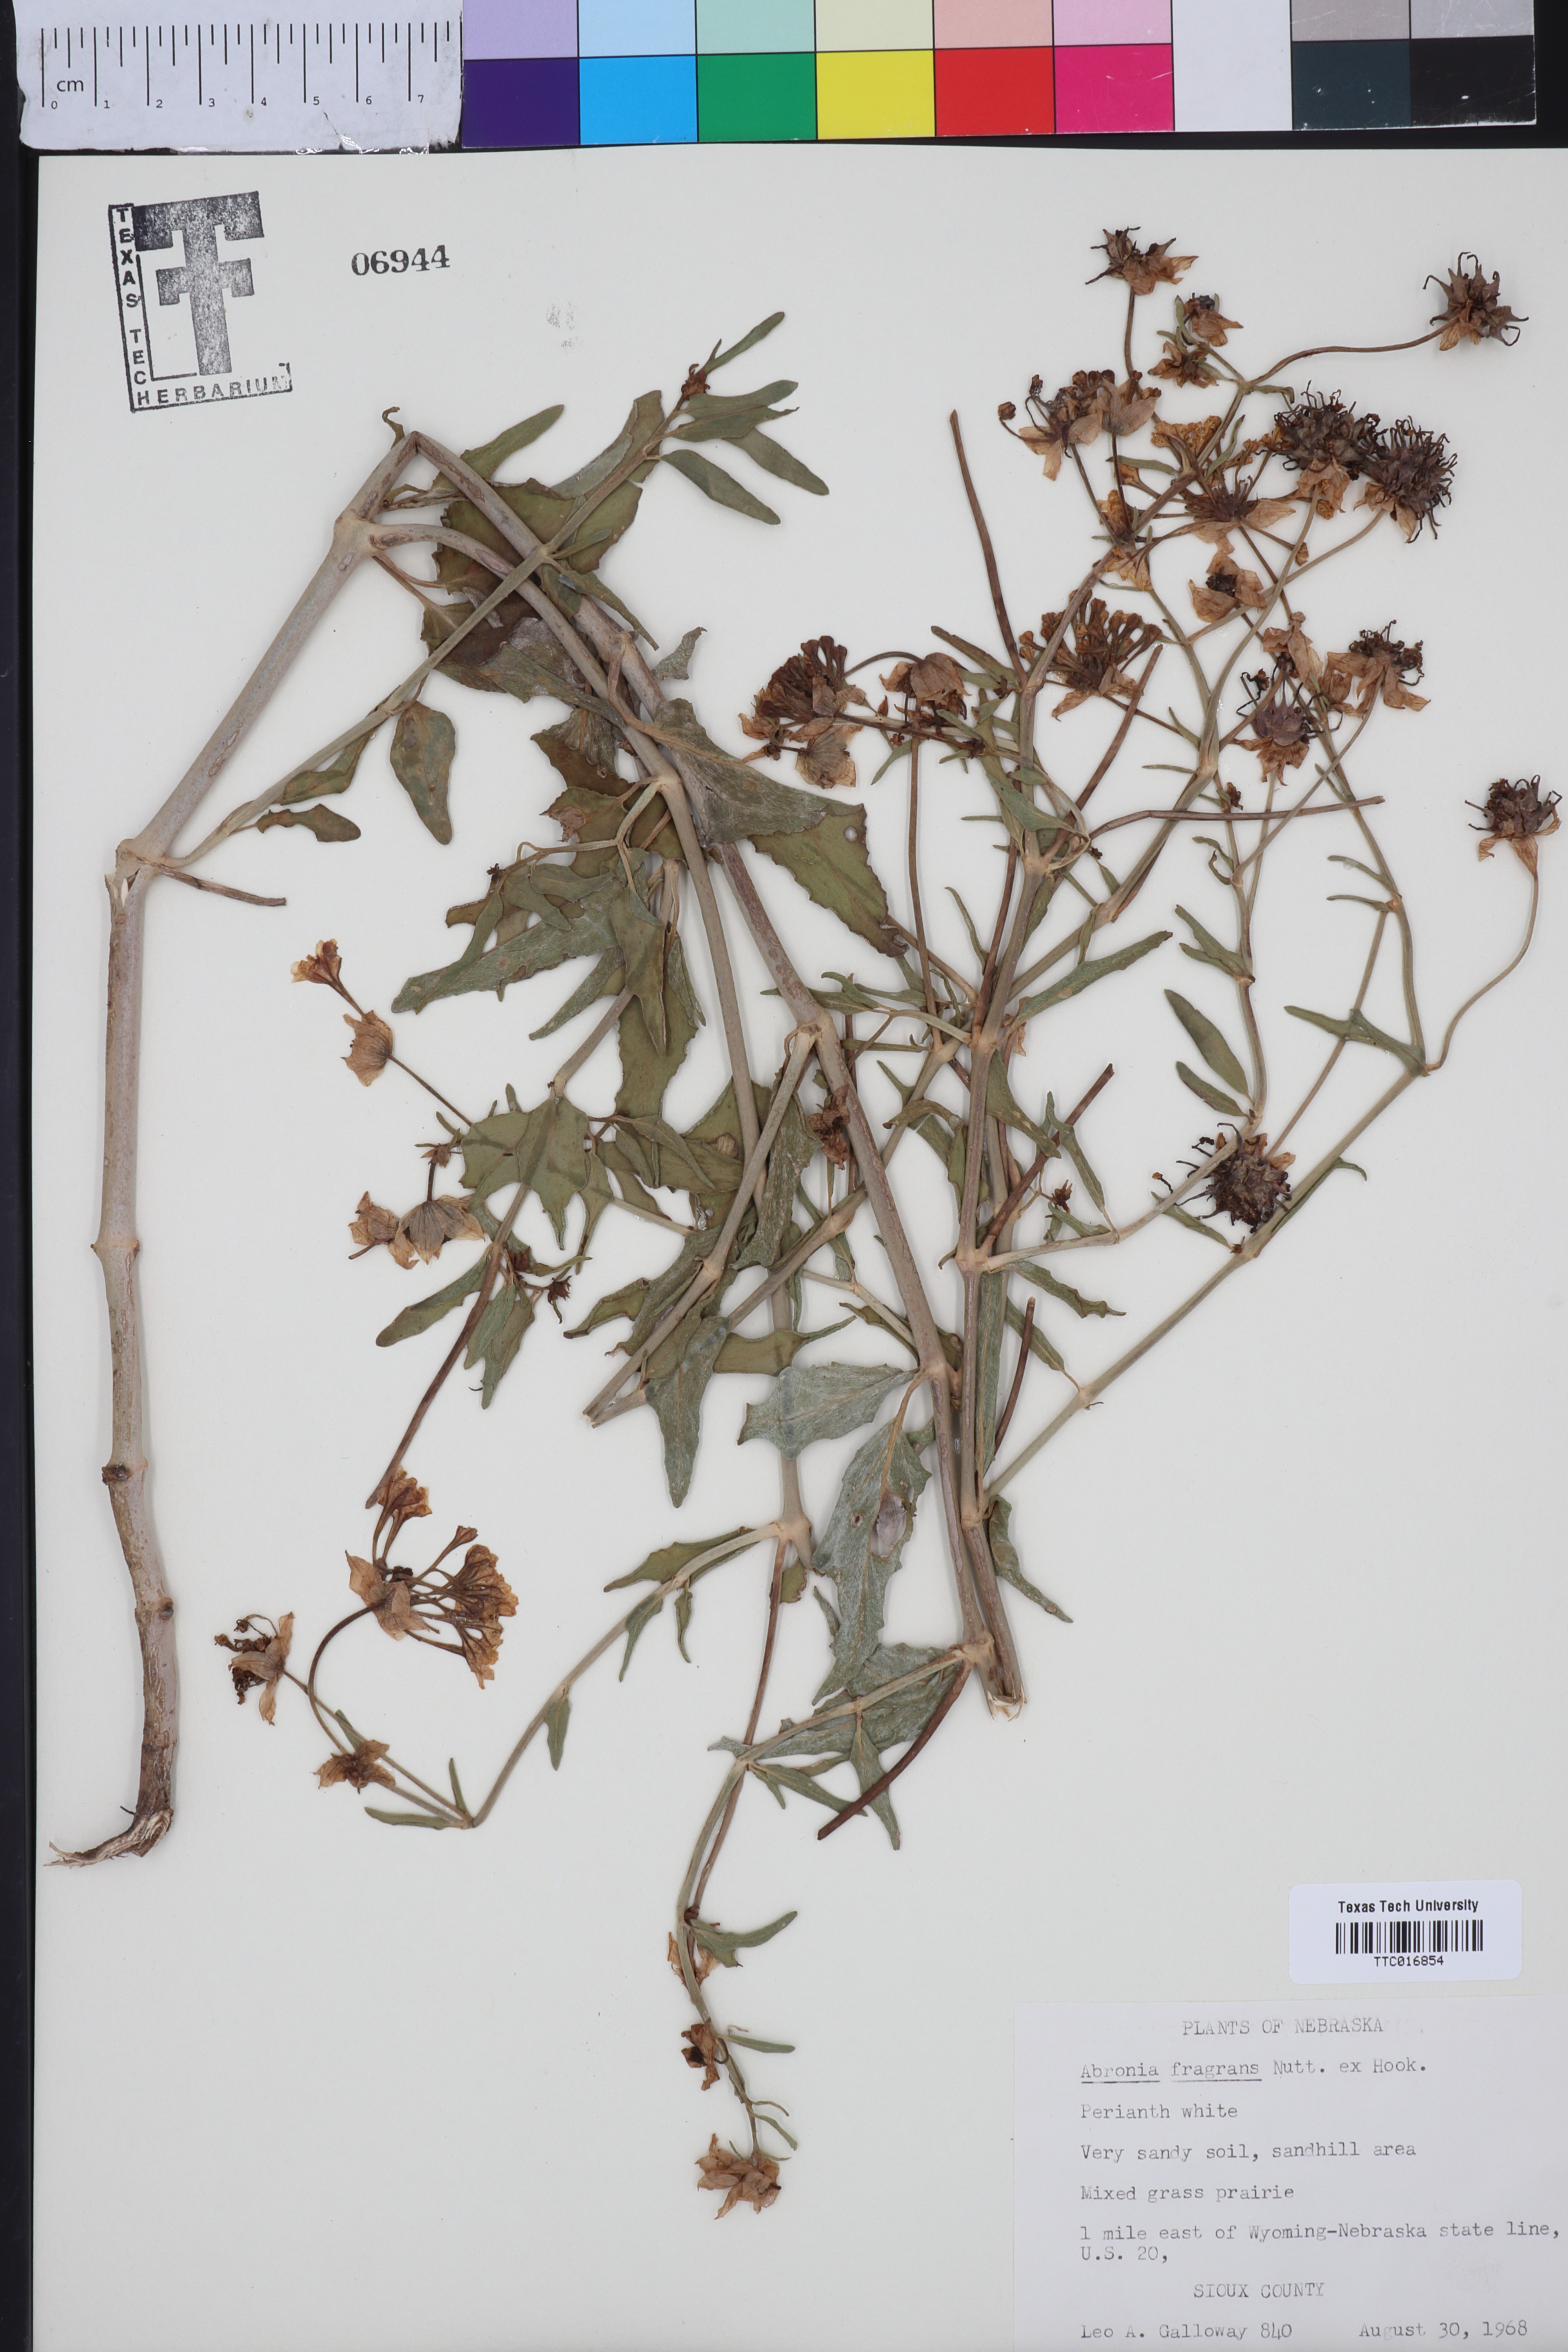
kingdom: Plantae
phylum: Tracheophyta
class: Magnoliopsida
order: Caryophyllales
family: Nyctaginaceae
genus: Abronia
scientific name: Abronia fragrans
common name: Fragrant sand-verbena
